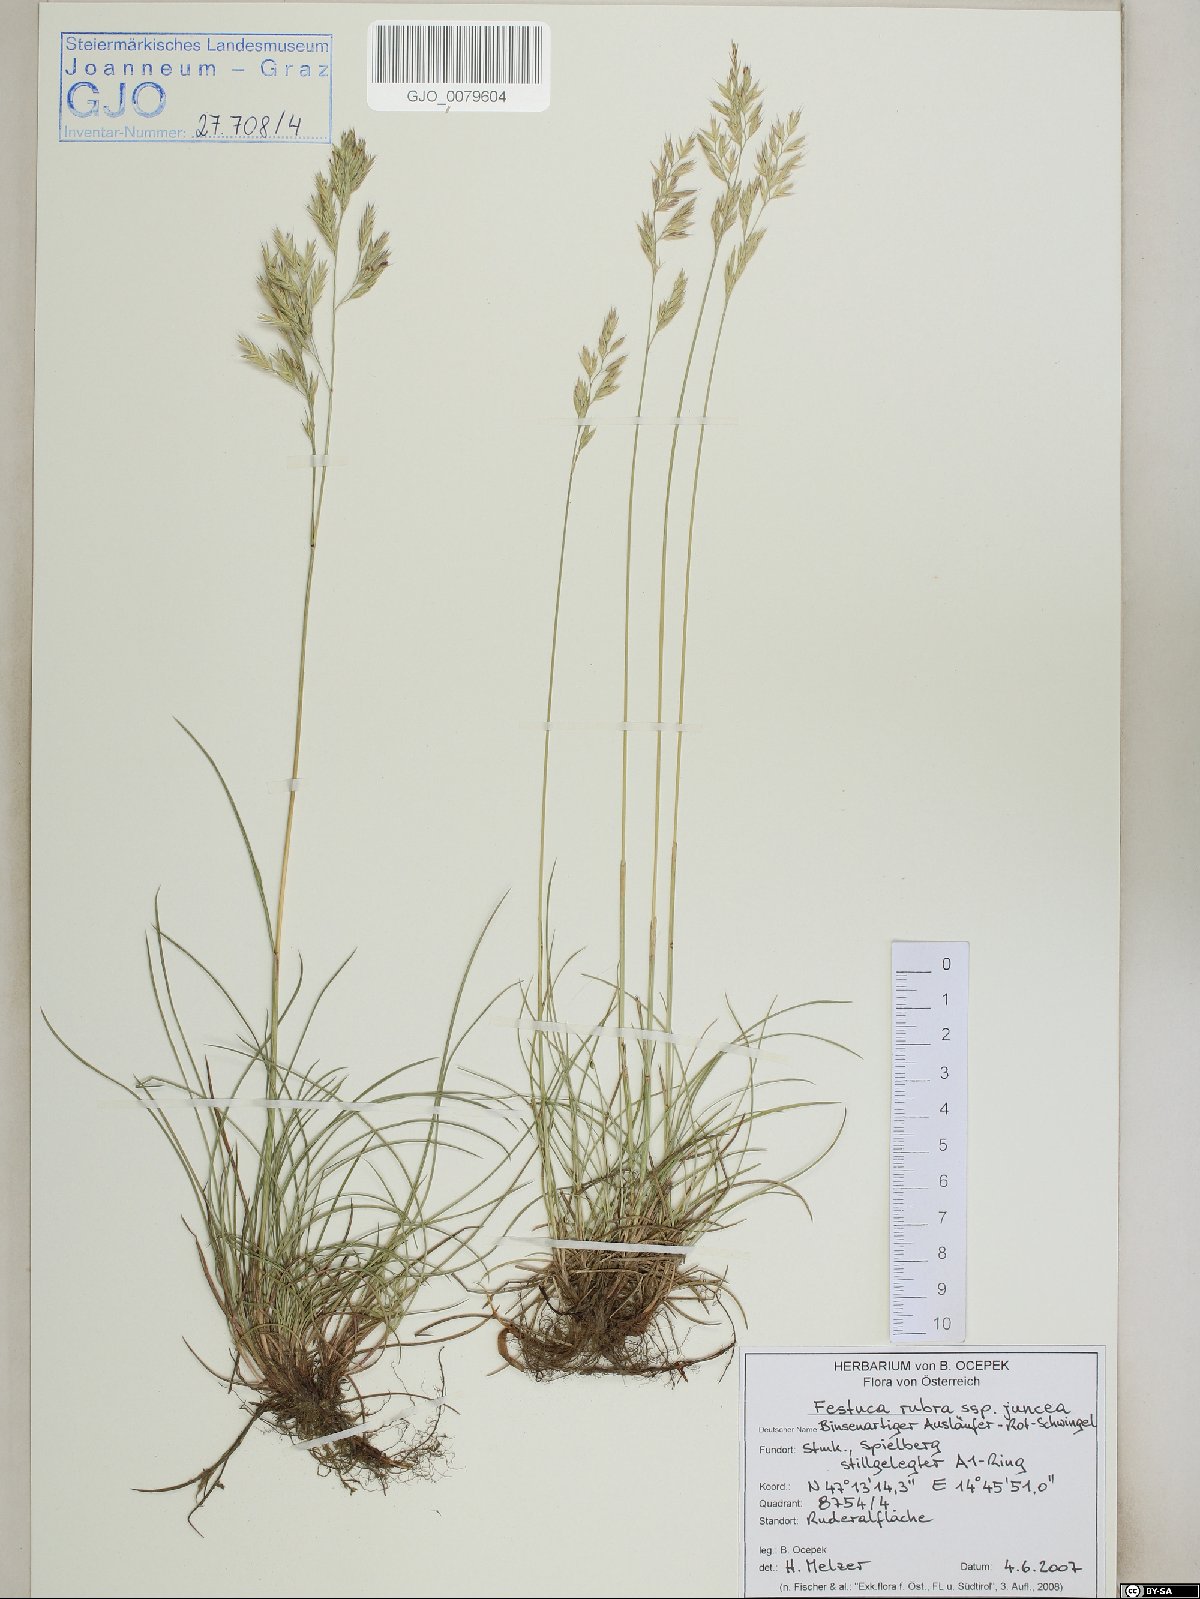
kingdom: Plantae
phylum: Tracheophyta
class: Liliopsida
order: Poales
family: Poaceae
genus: Festuca
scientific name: Festuca rubra
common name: Red fescue
